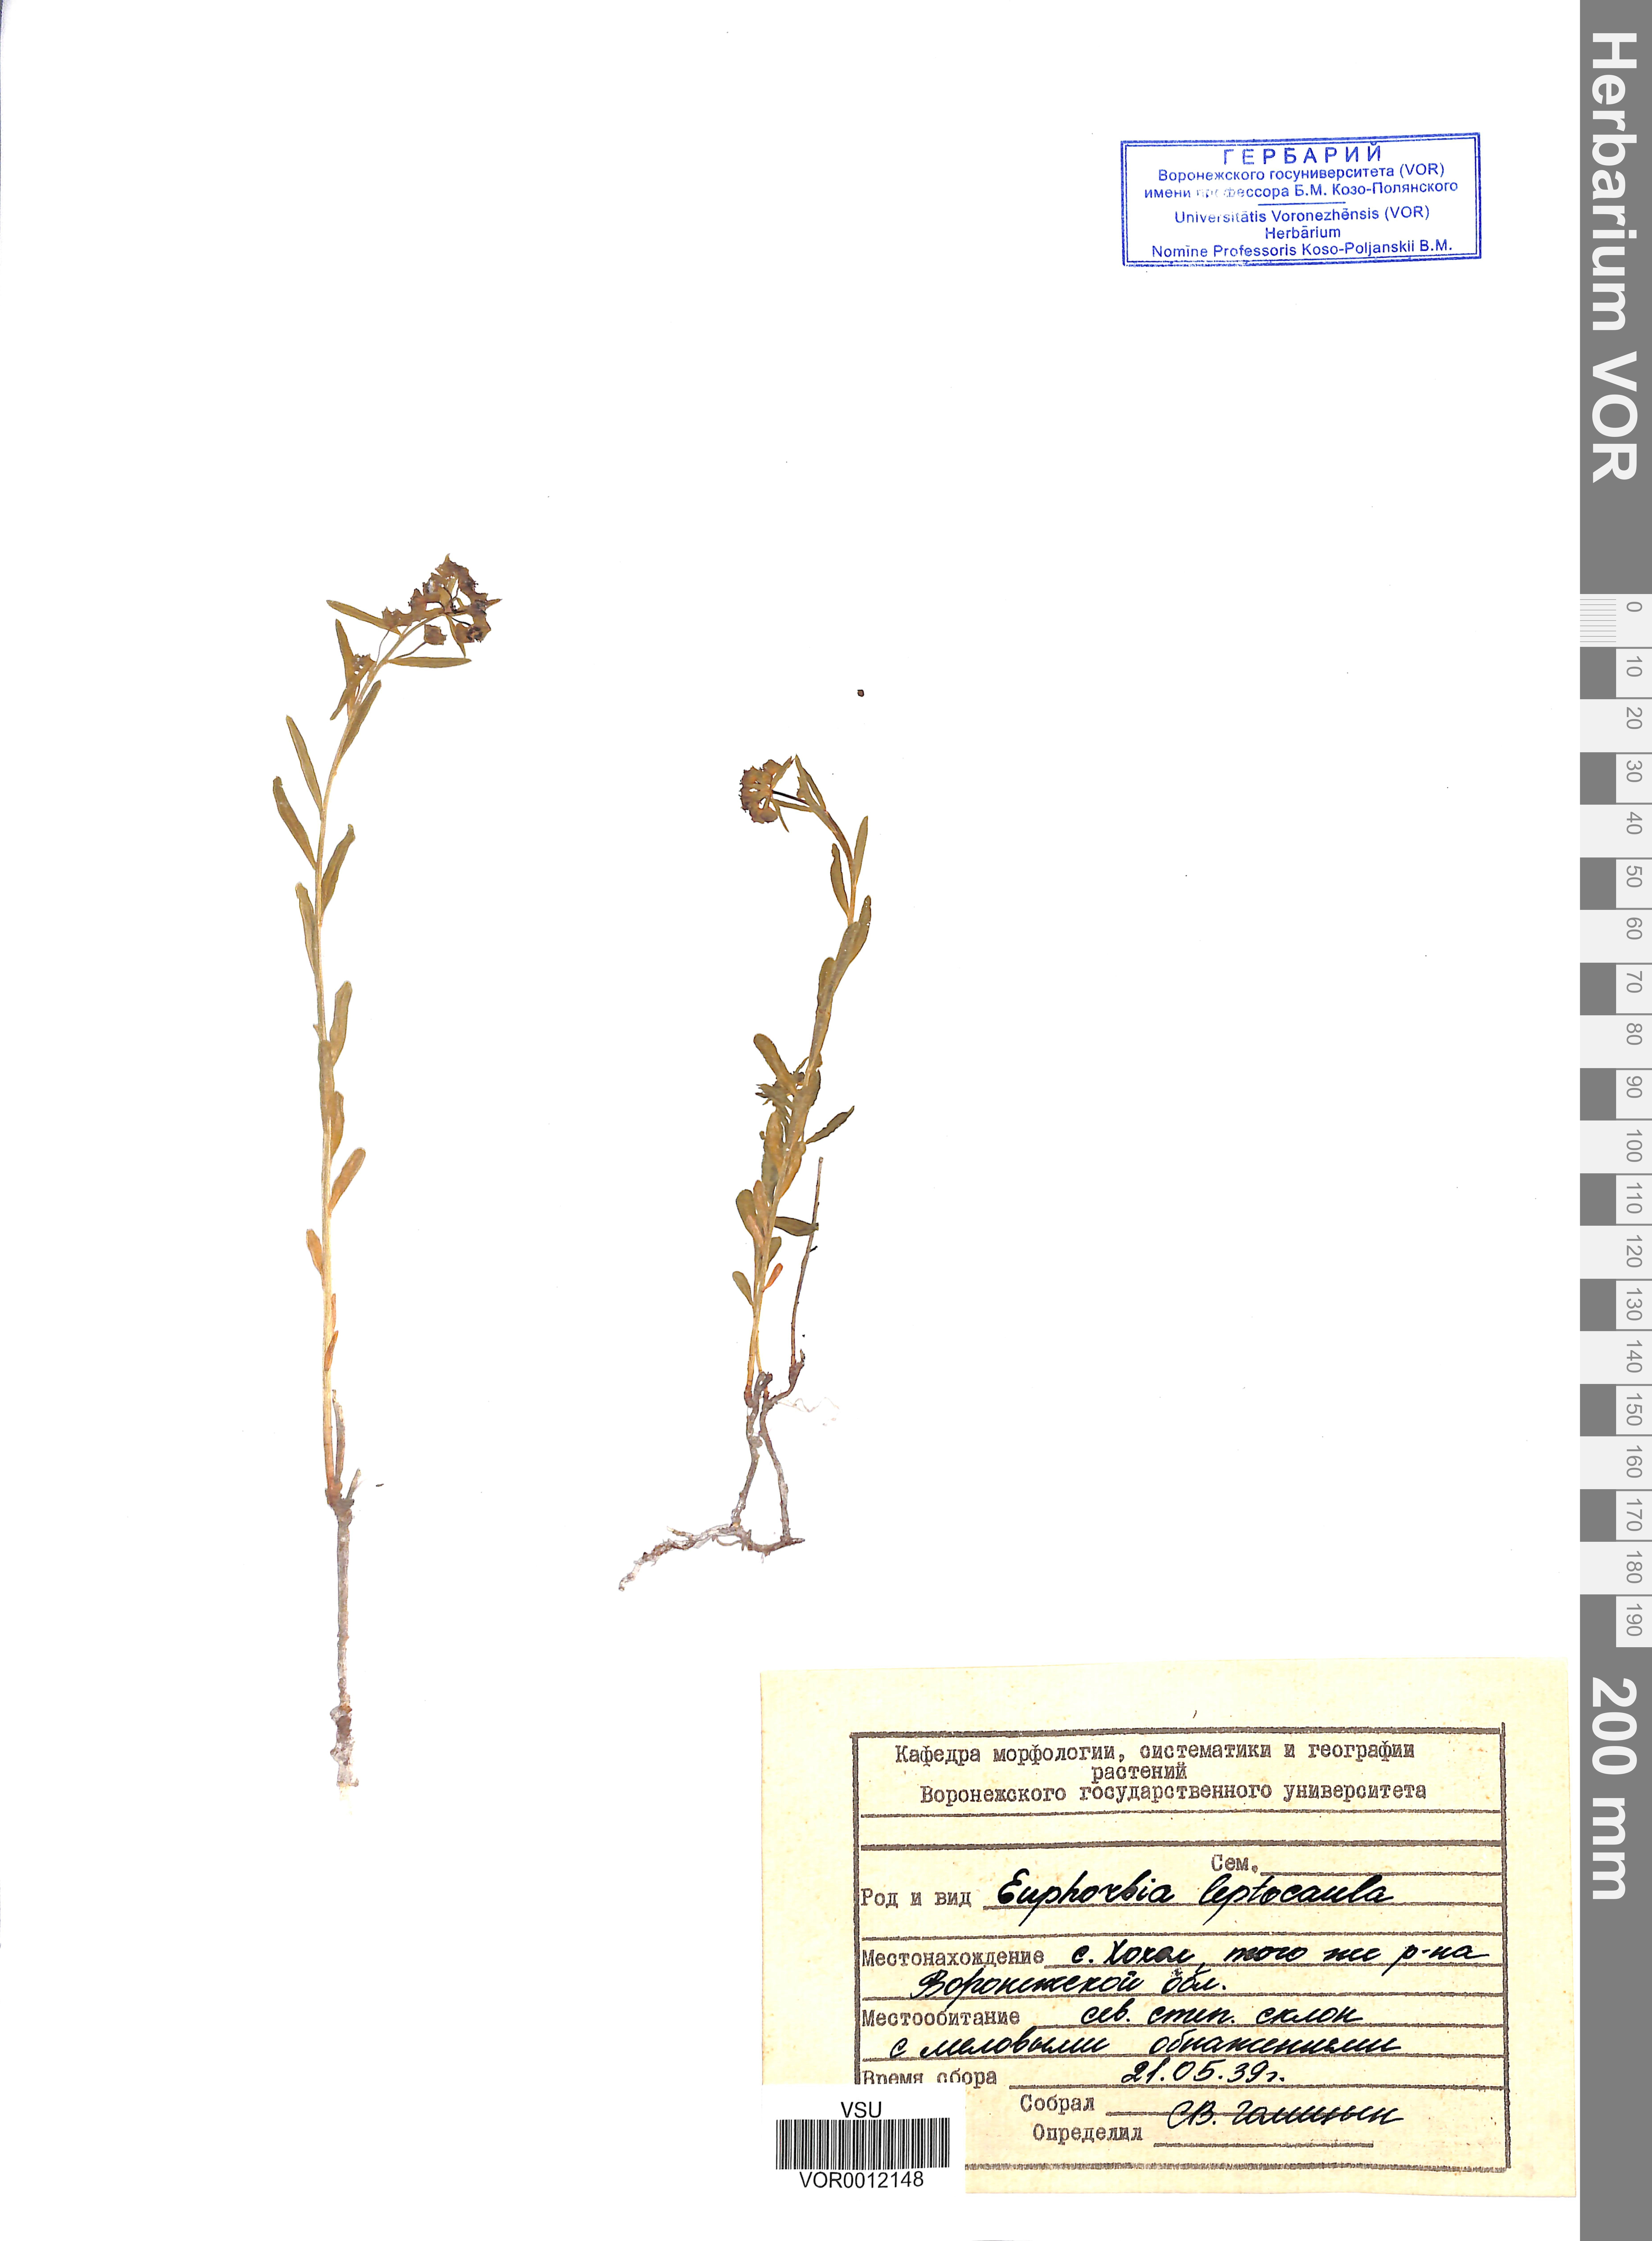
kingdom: Plantae
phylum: Tracheophyta
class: Magnoliopsida
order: Malpighiales
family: Euphorbiaceae
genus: Euphorbia
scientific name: Euphorbia leptocaula
